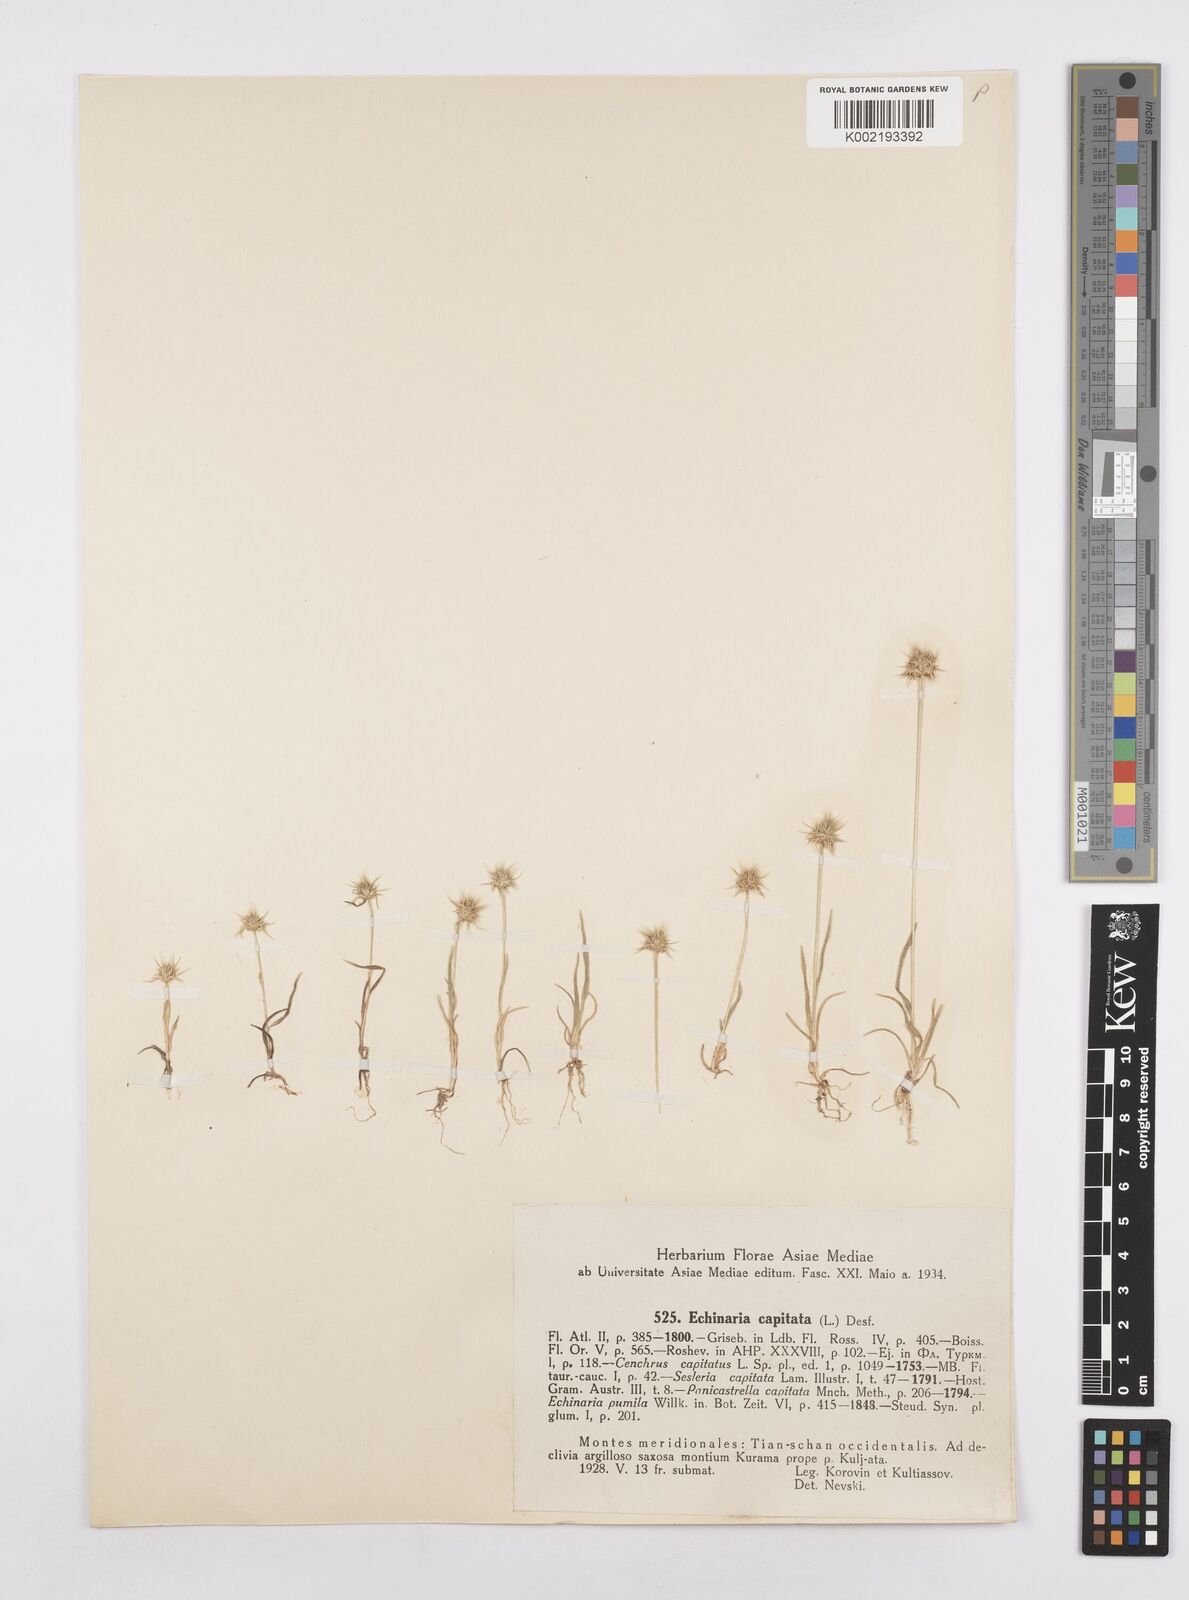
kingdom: Plantae
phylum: Tracheophyta
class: Liliopsida
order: Poales
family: Poaceae
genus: Echinaria
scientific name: Echinaria capitata
